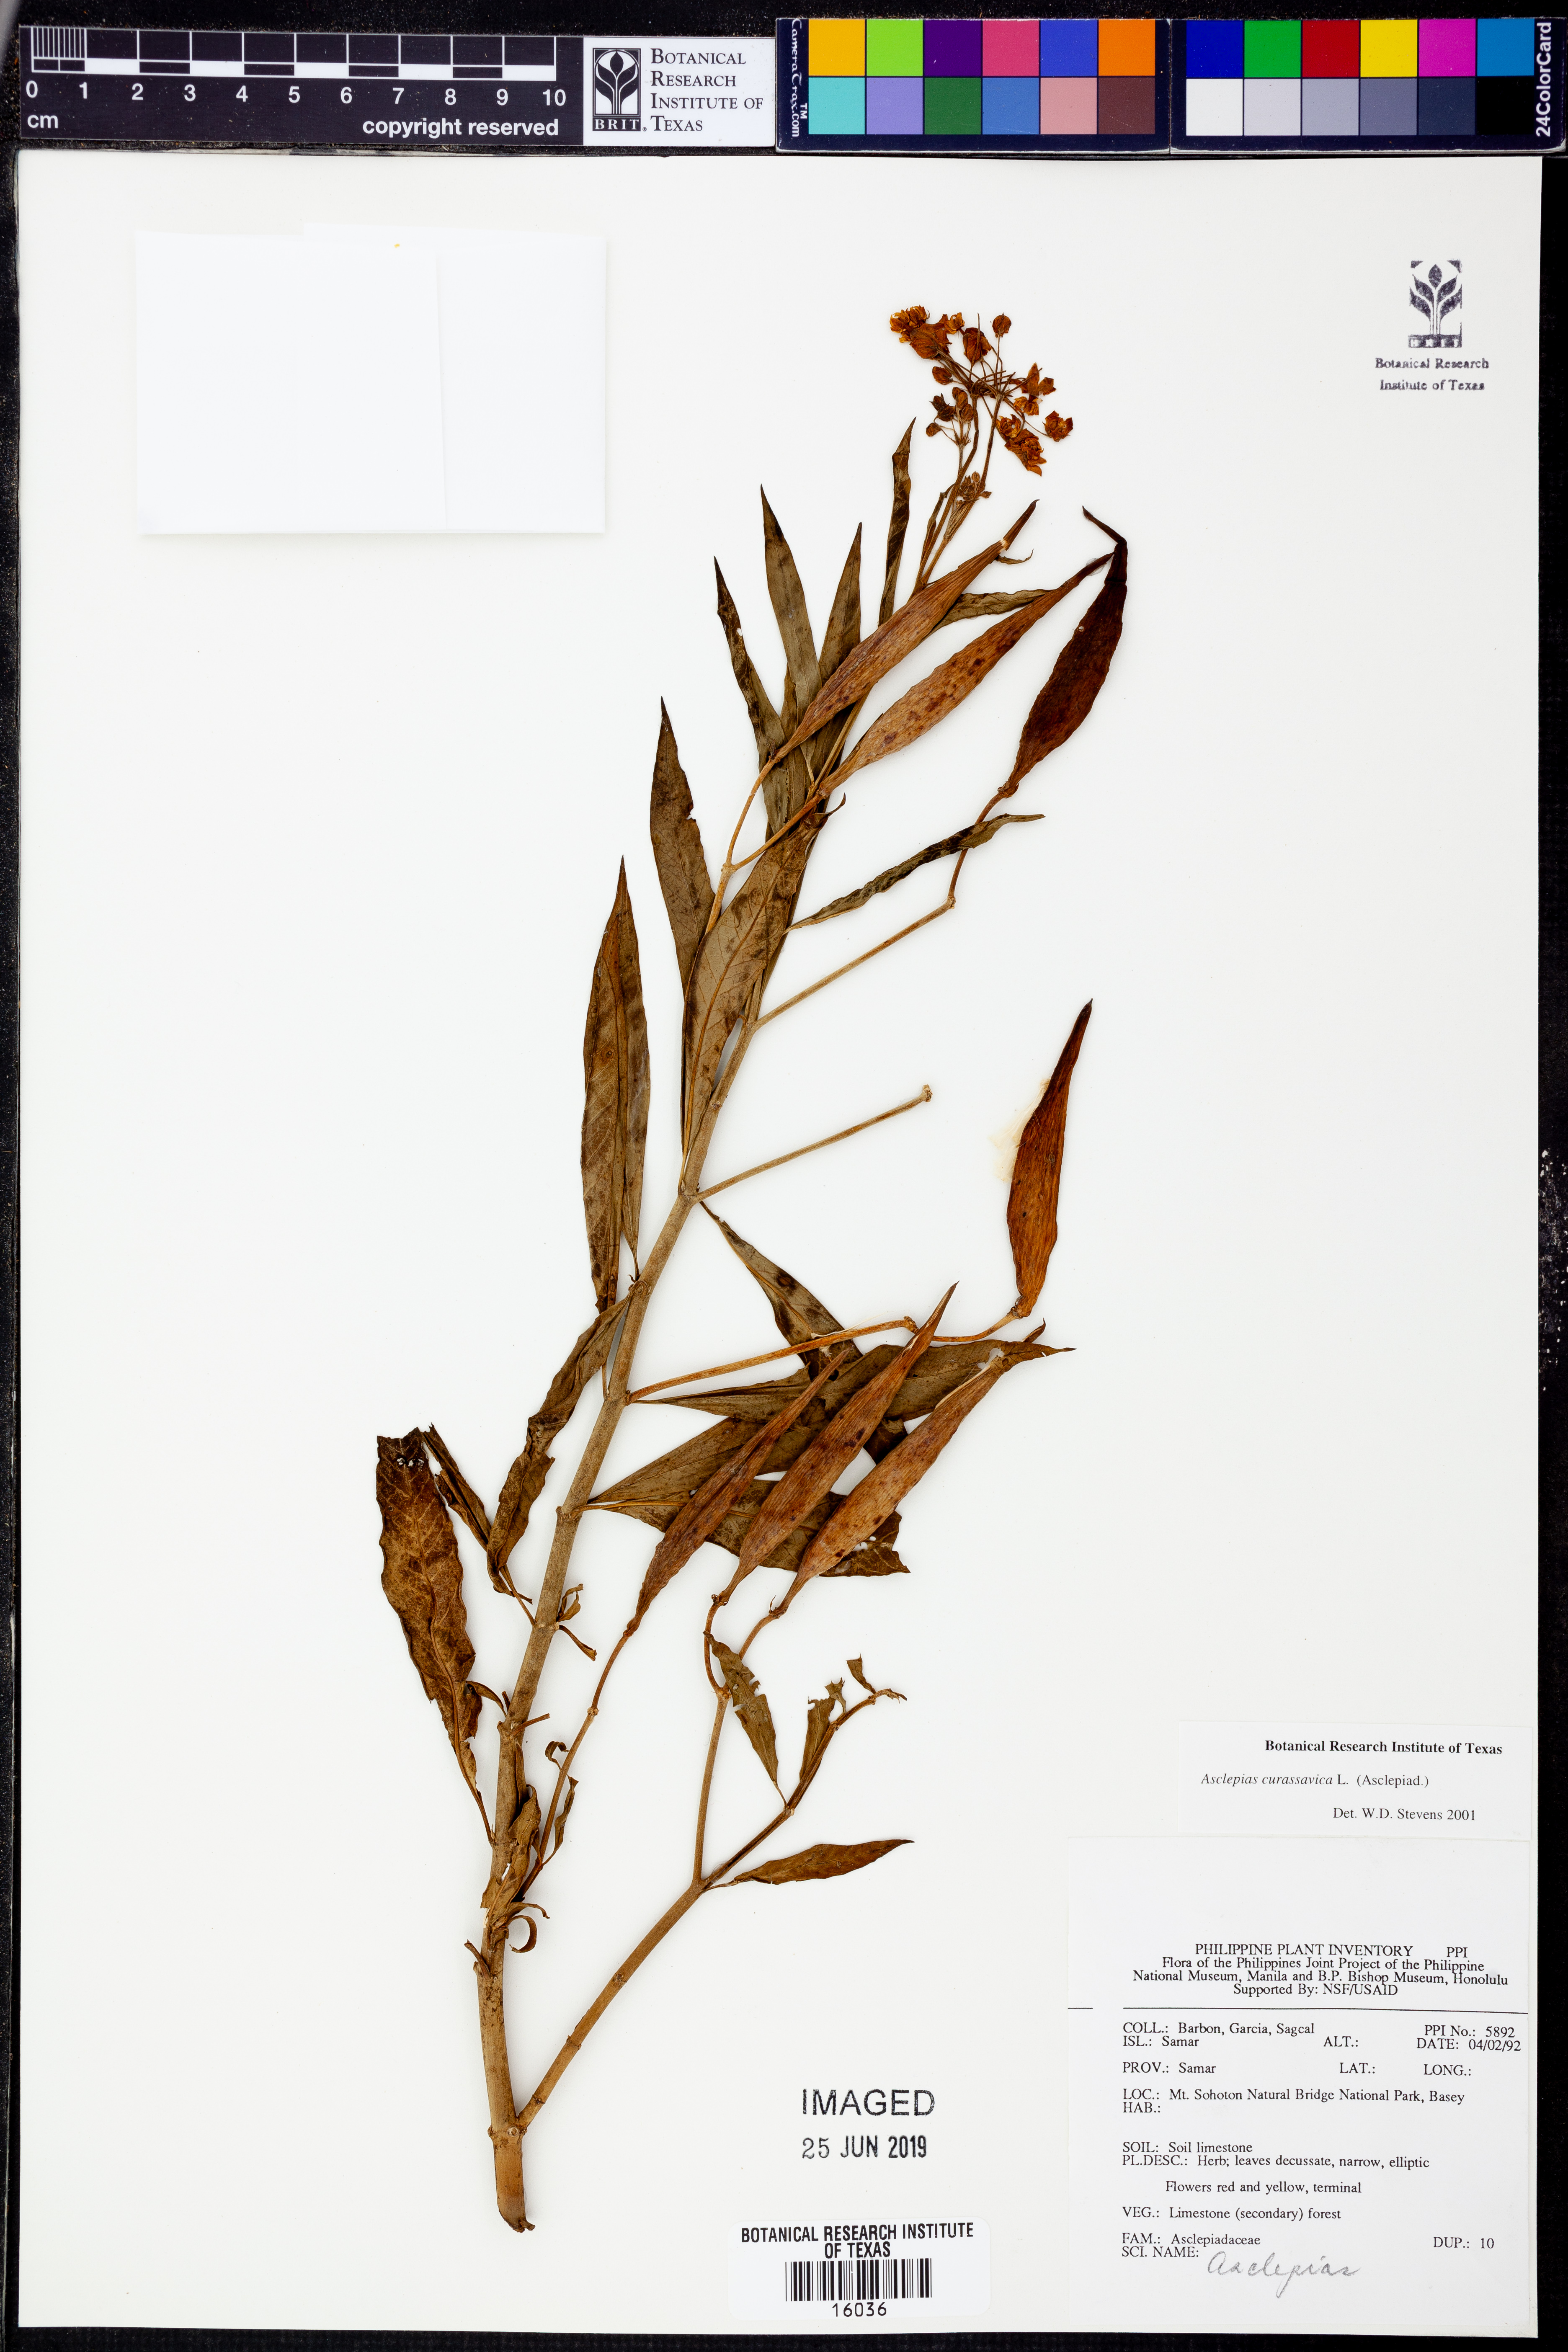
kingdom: Plantae
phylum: Tracheophyta
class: Magnoliopsida
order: Gentianales
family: Apocynaceae
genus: Asclepias
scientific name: Asclepias curassavica
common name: Bloodflower
